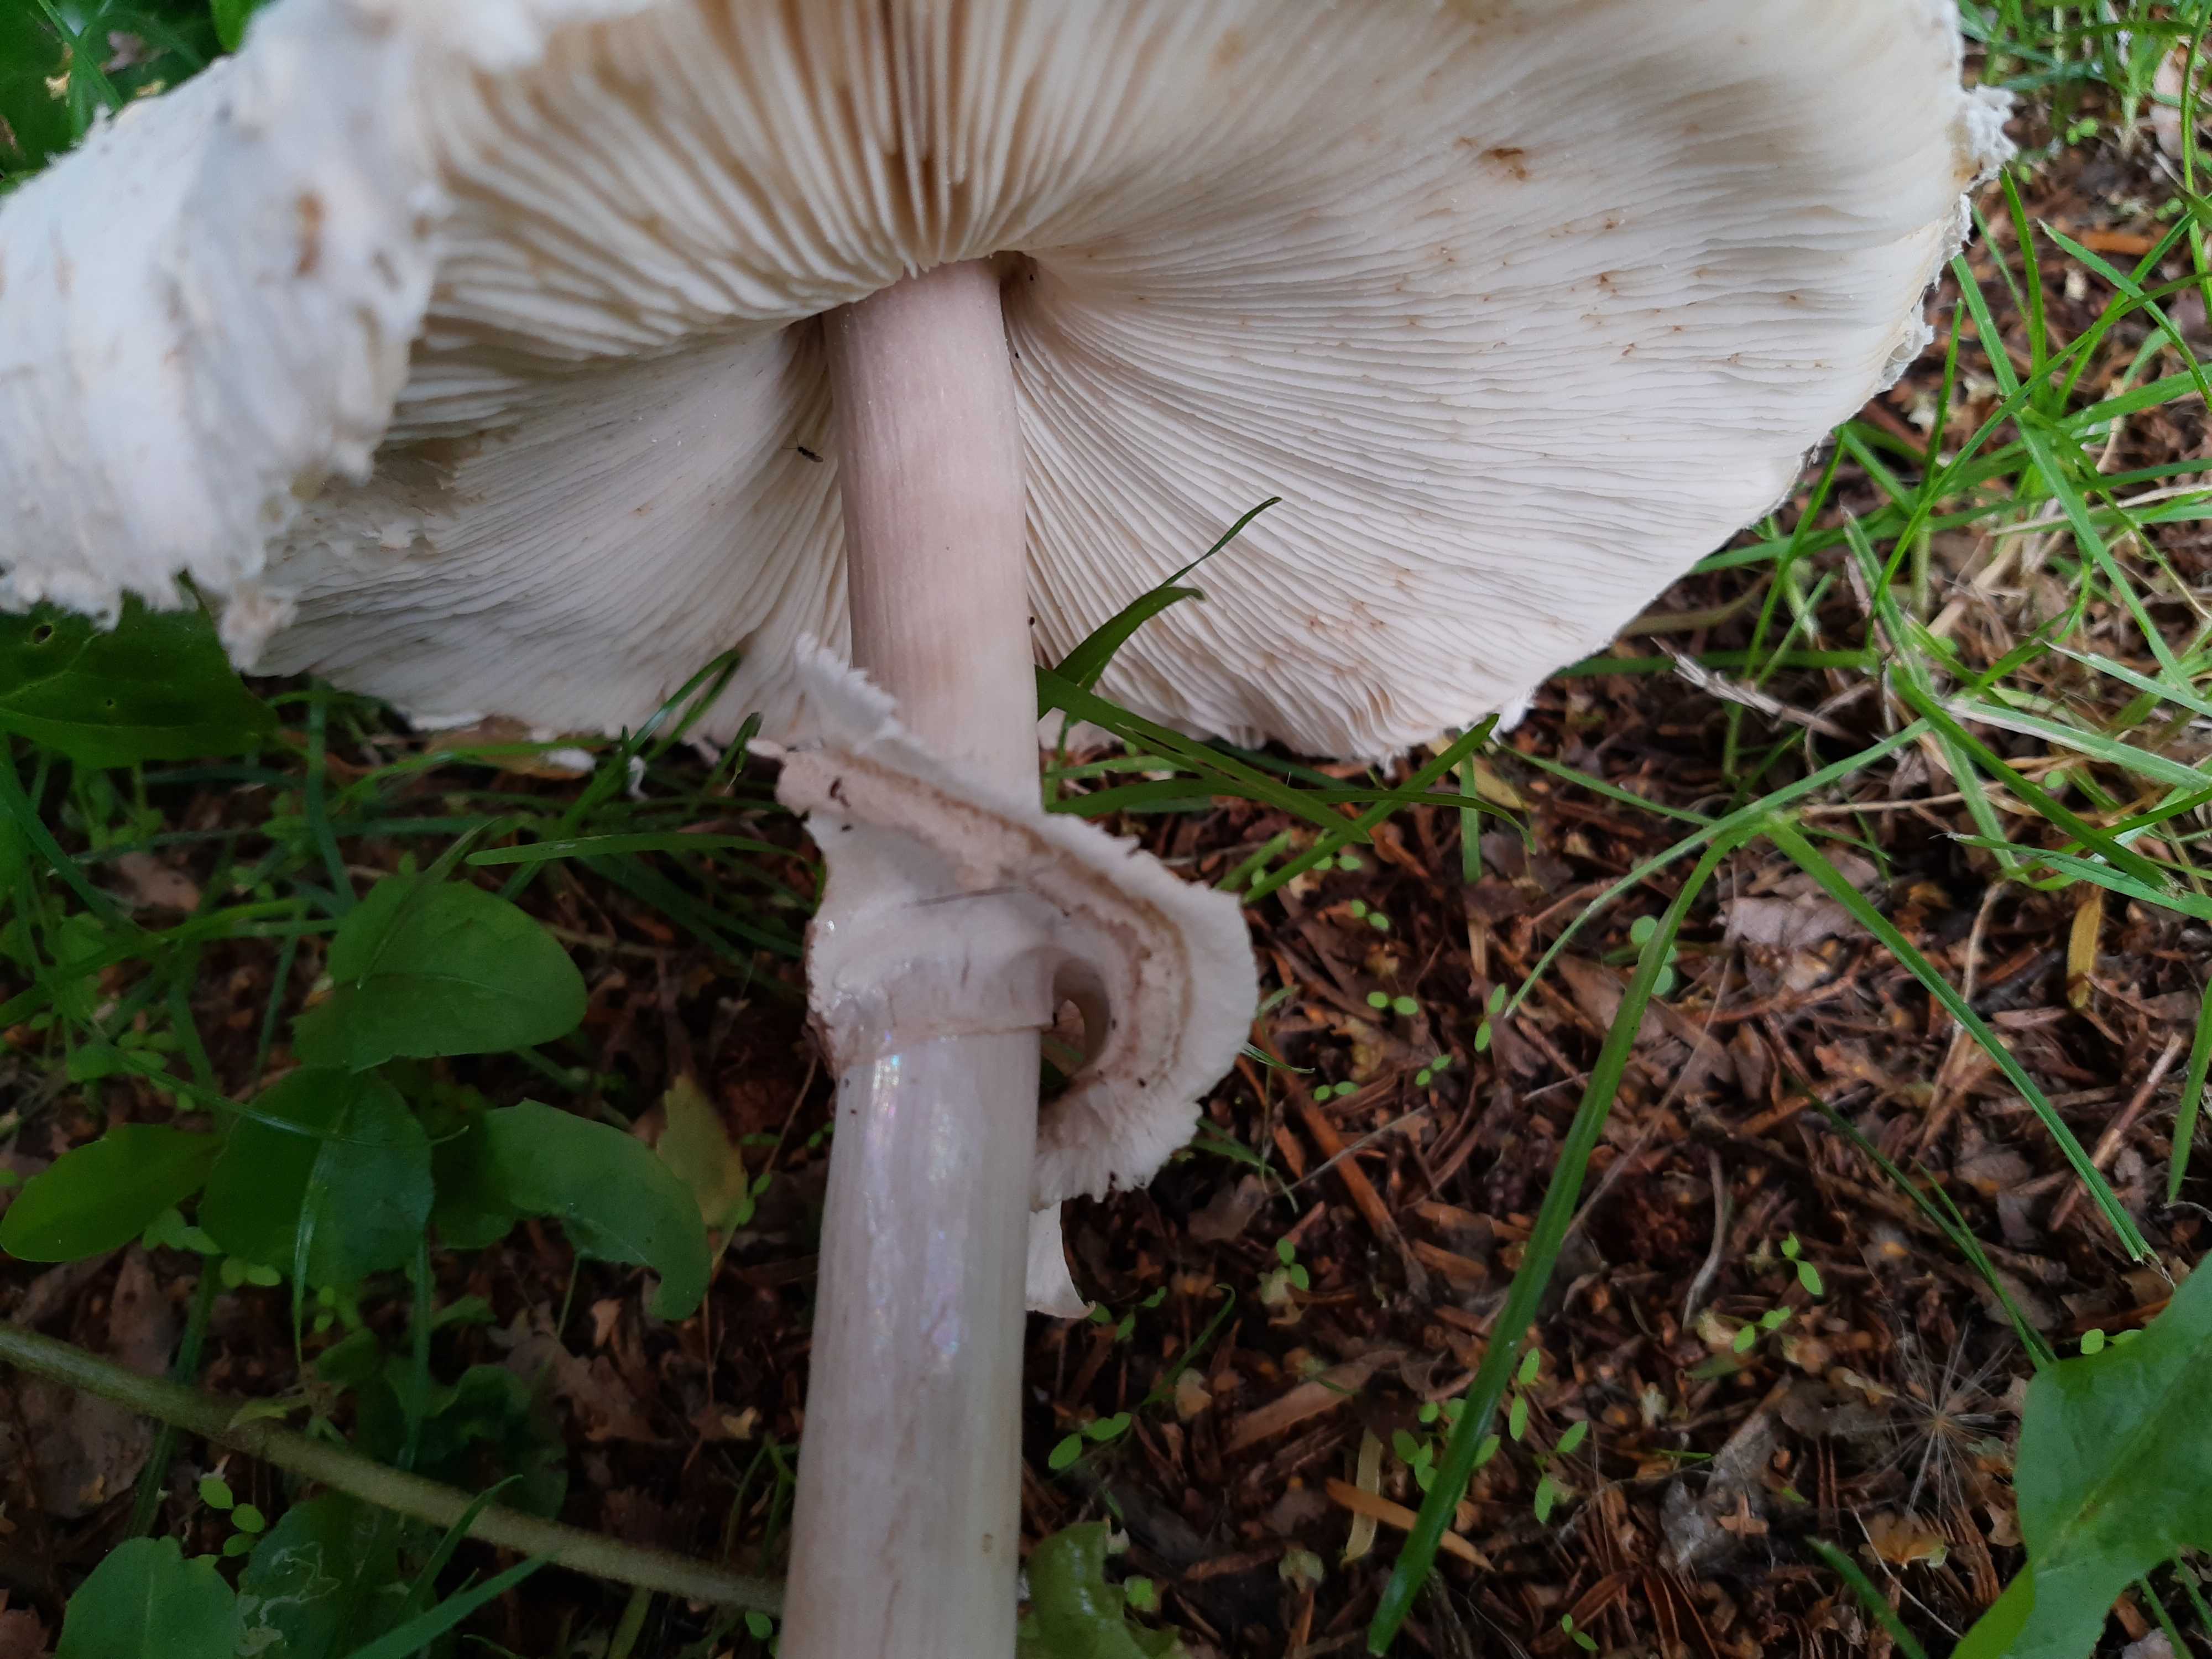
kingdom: Fungi
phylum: Basidiomycota
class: Agaricomycetes
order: Agaricales
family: Agaricaceae
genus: Chlorophyllum
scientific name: Chlorophyllum rhacodes
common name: ægte rabarberhat
